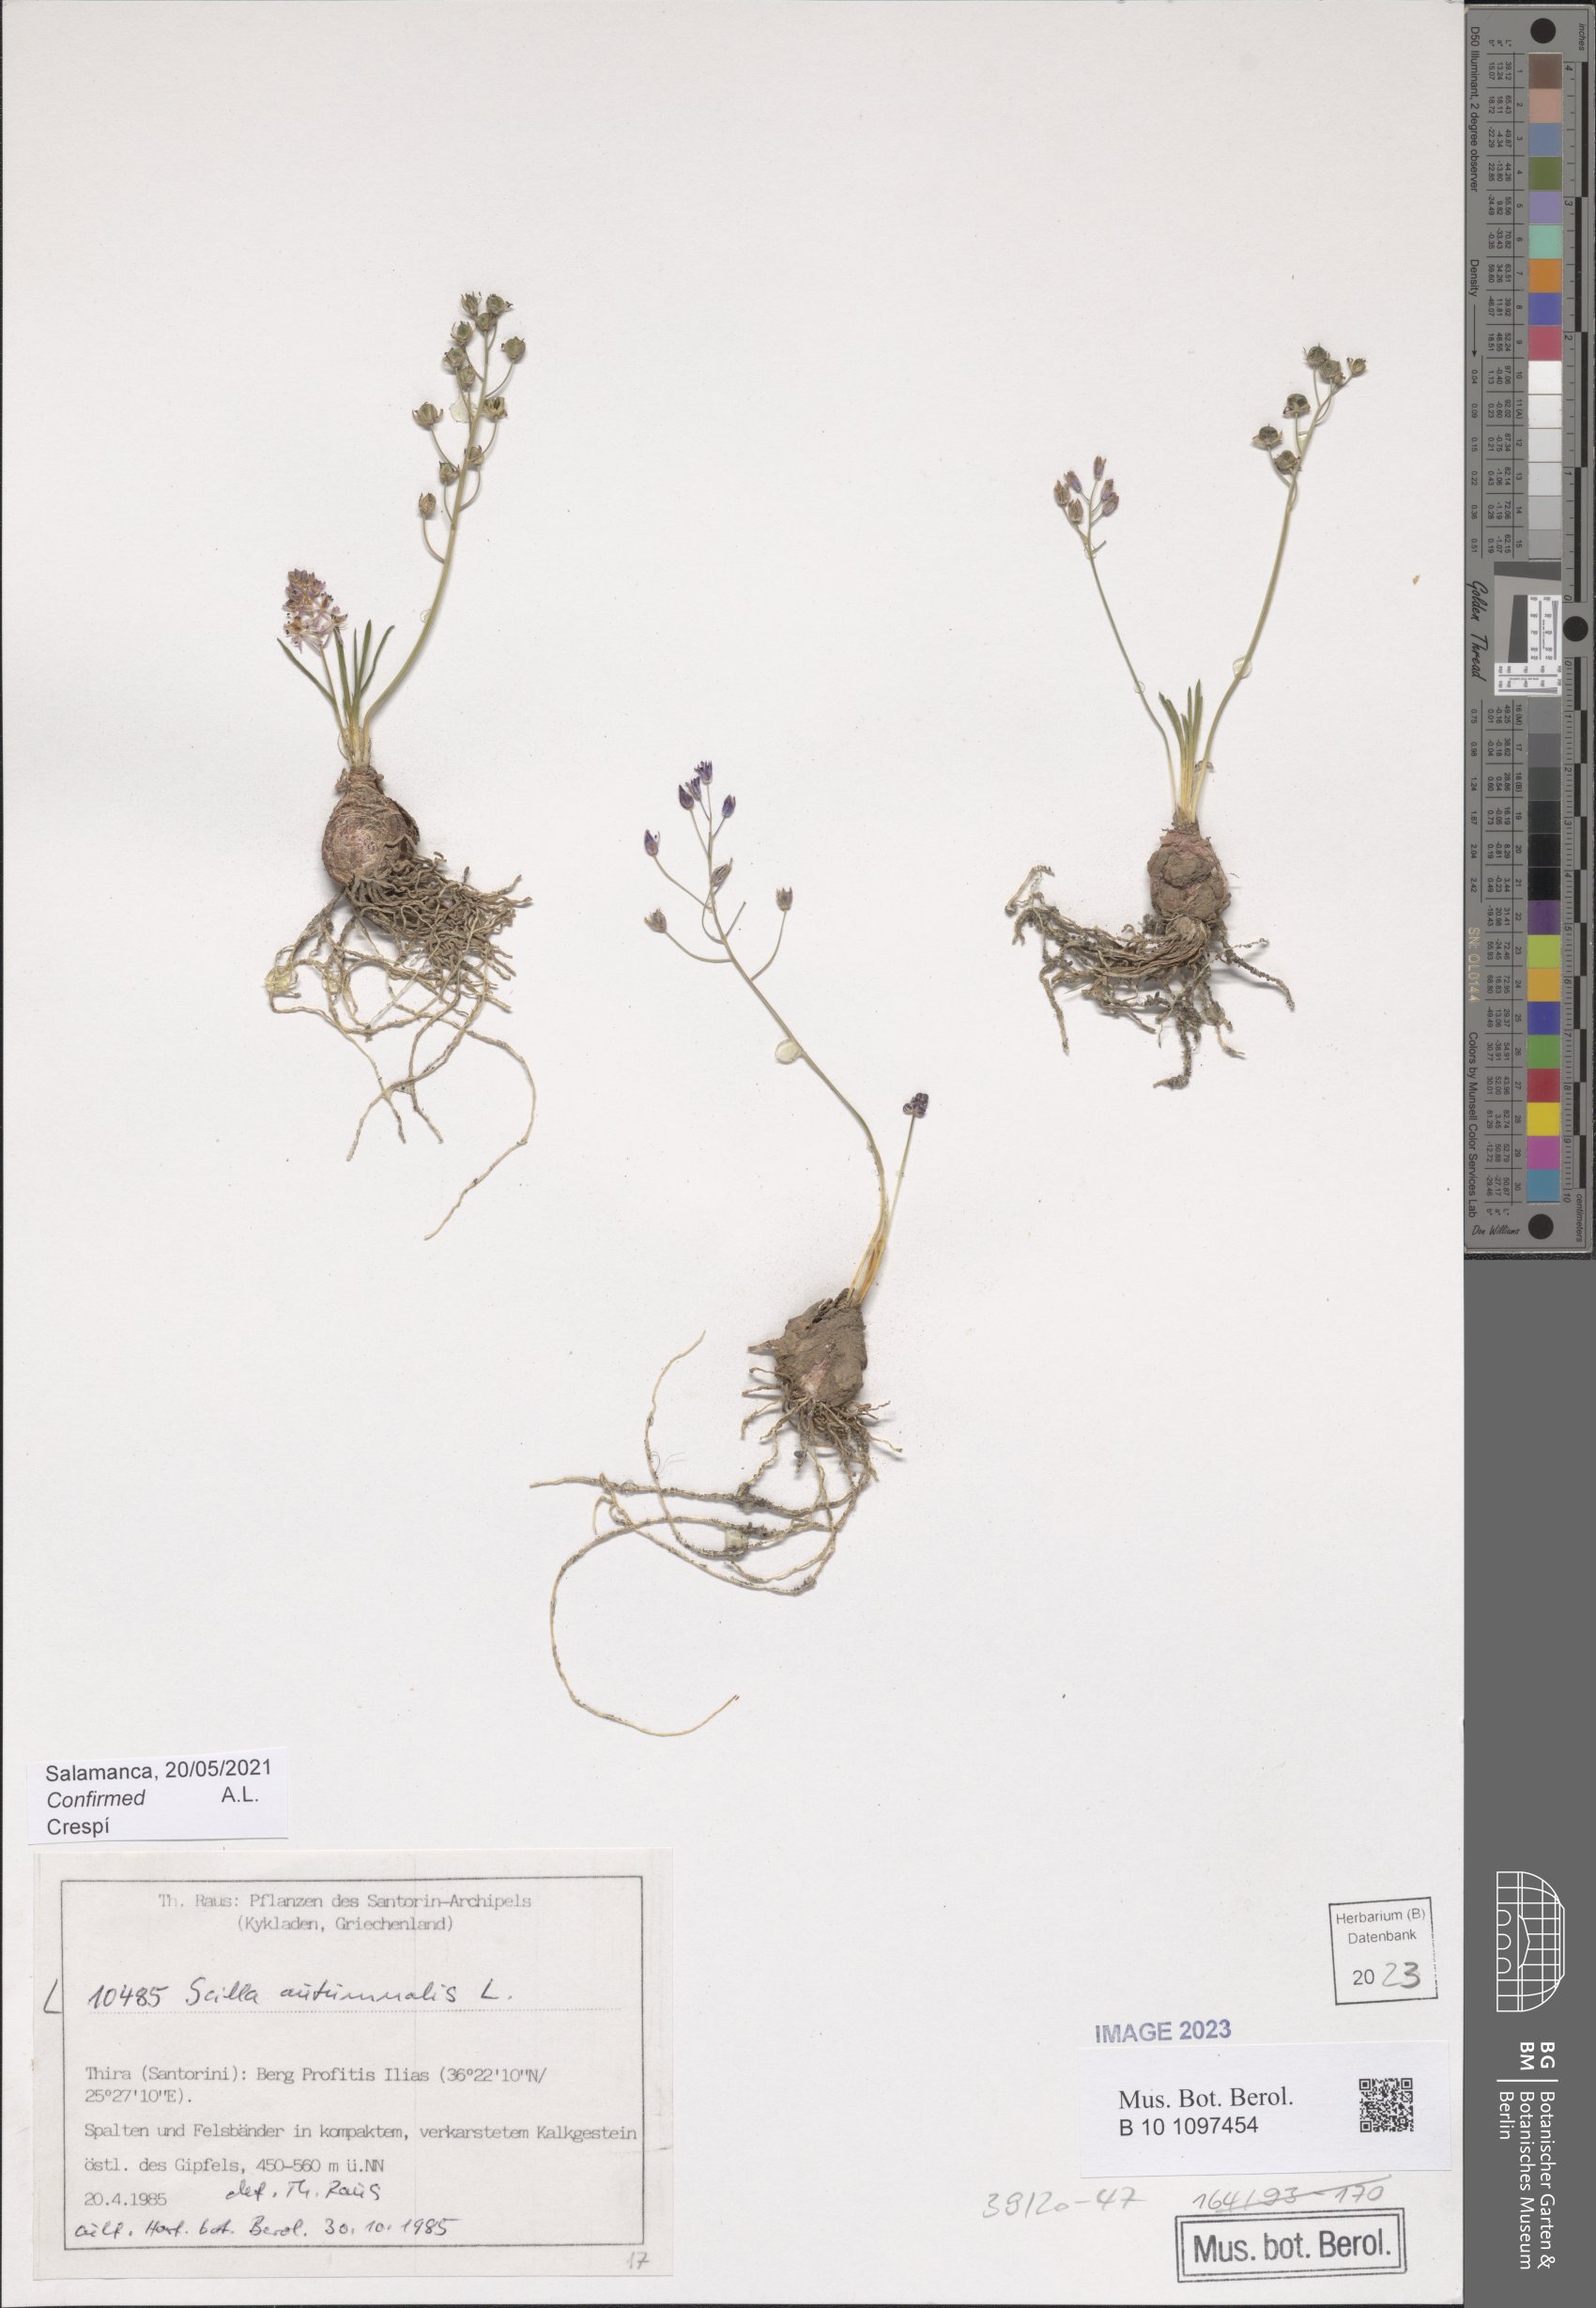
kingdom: Plantae
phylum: Tracheophyta
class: Liliopsida
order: Asparagales
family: Asparagaceae
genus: Prospero
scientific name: Prospero autumnale
